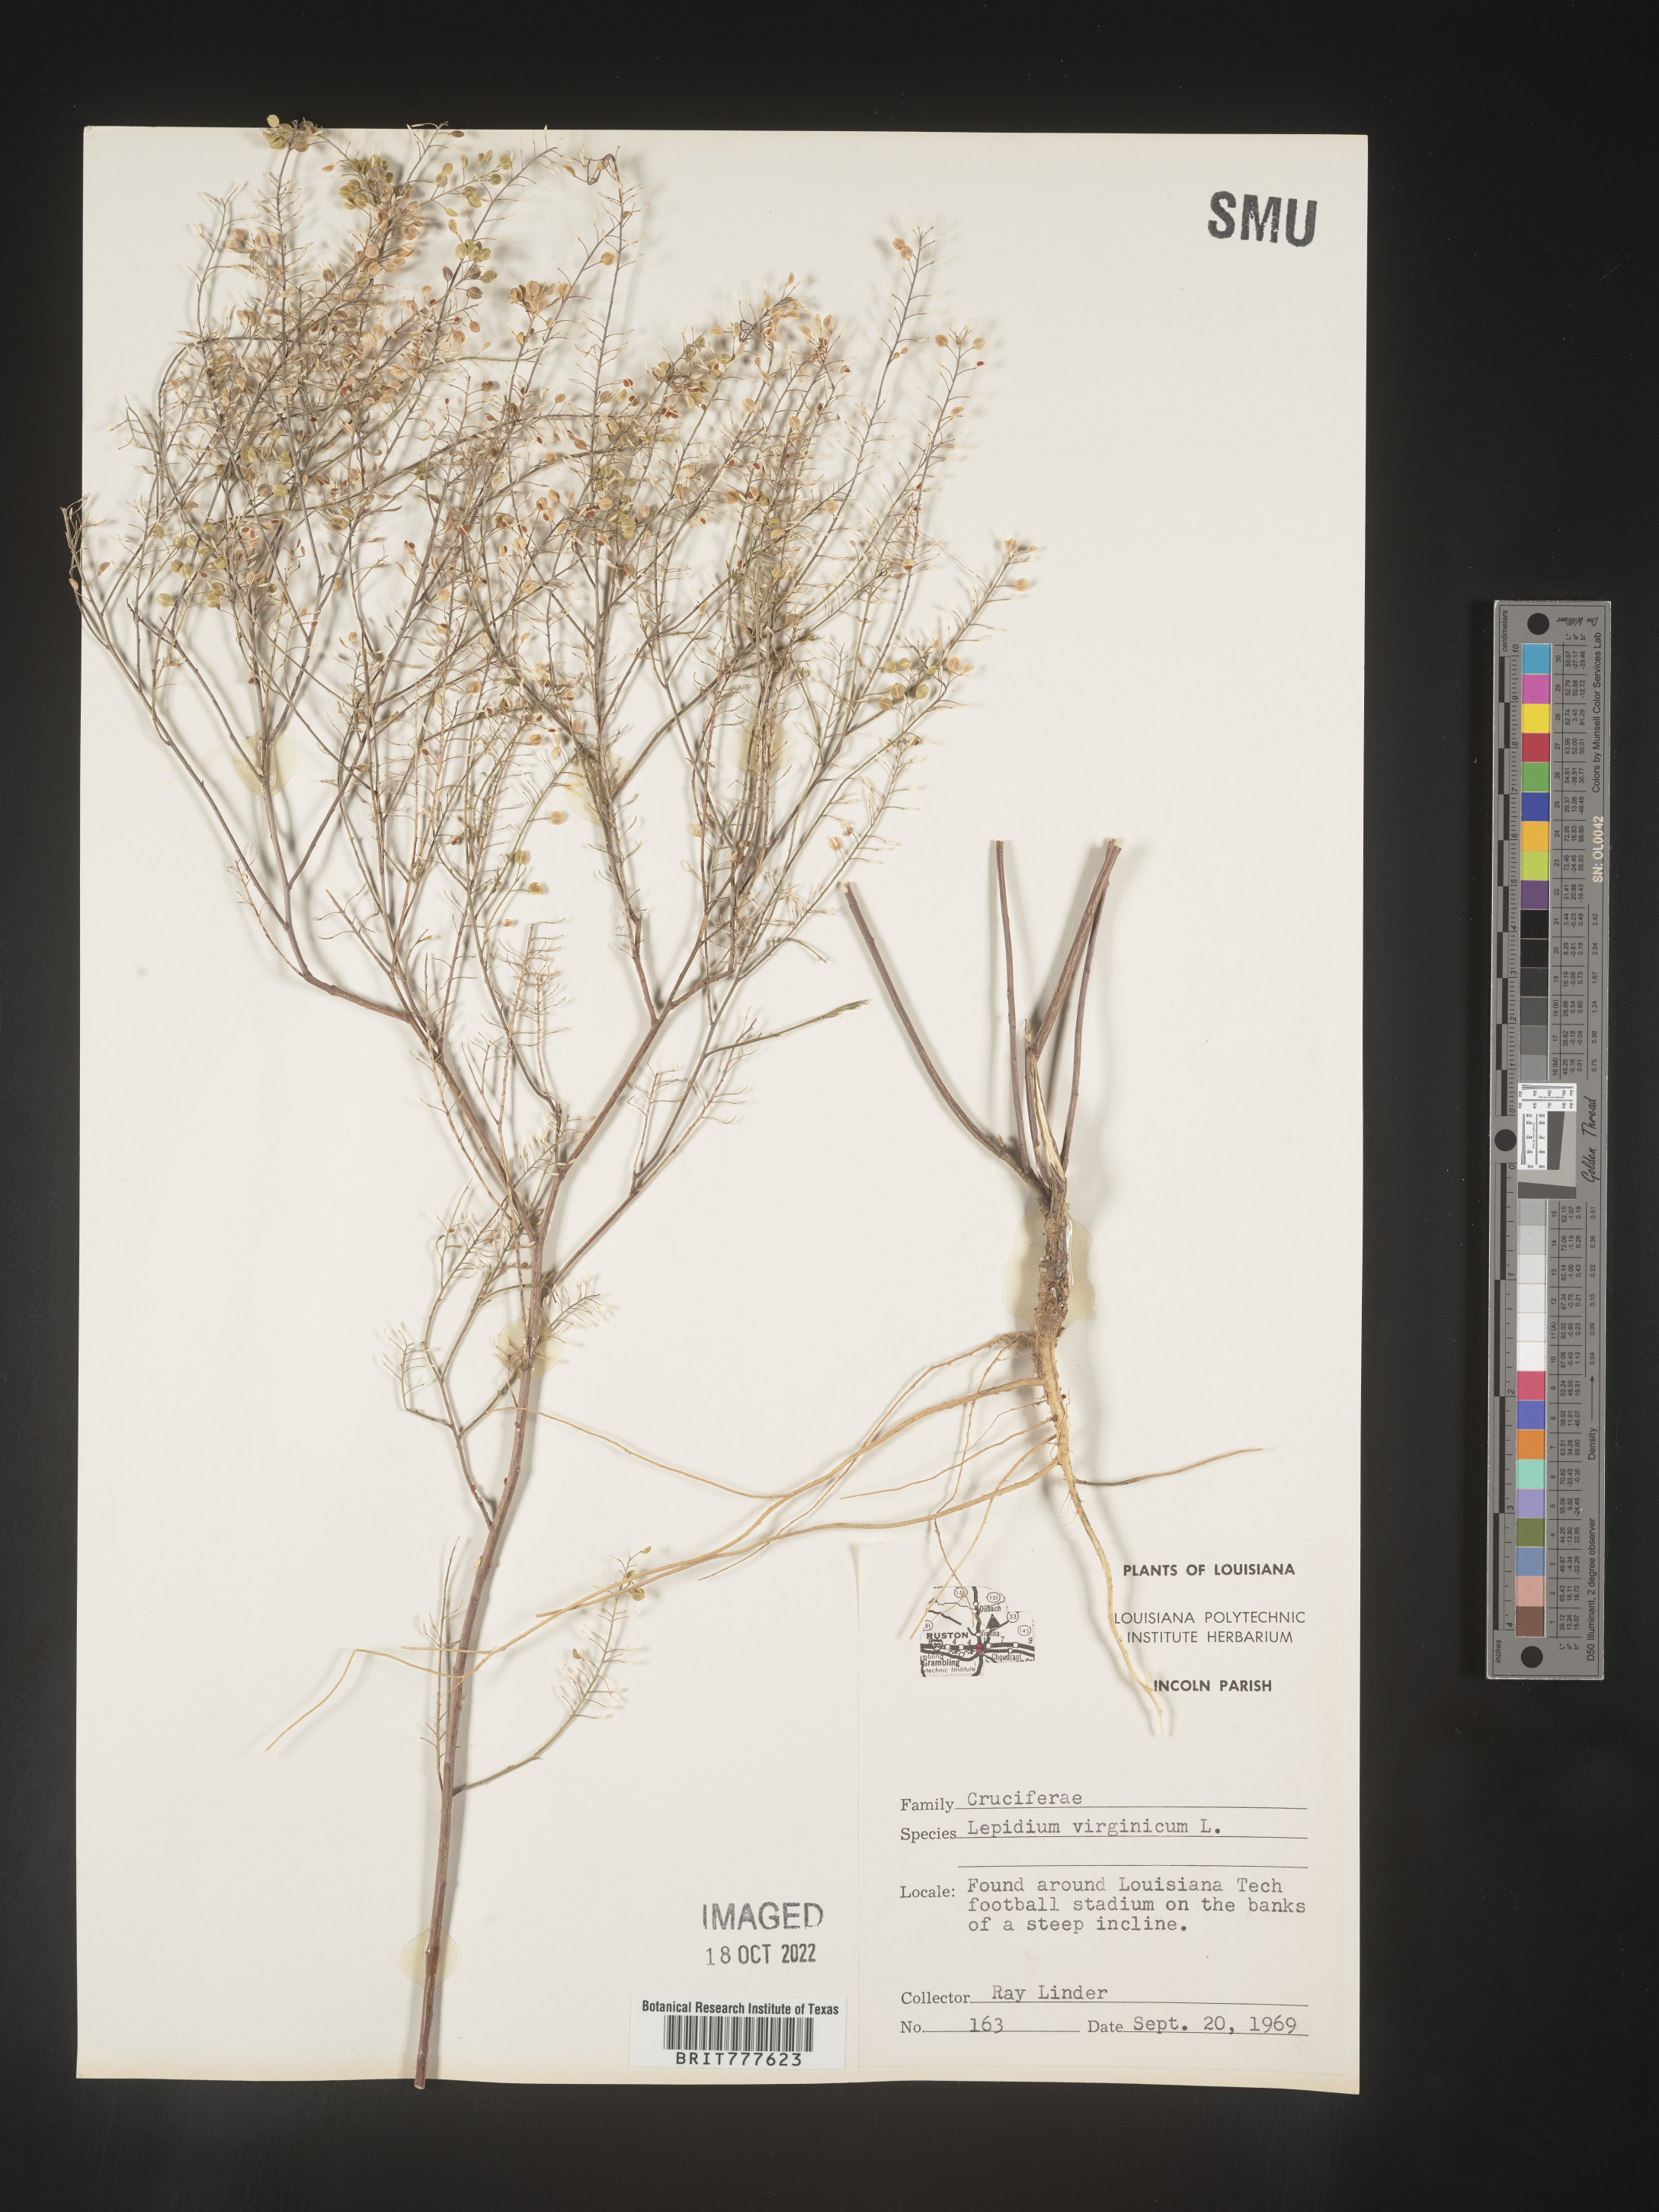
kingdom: Plantae
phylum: Tracheophyta
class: Magnoliopsida
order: Brassicales
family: Brassicaceae
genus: Lepidium
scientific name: Lepidium virginicum
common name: Least pepperwort
